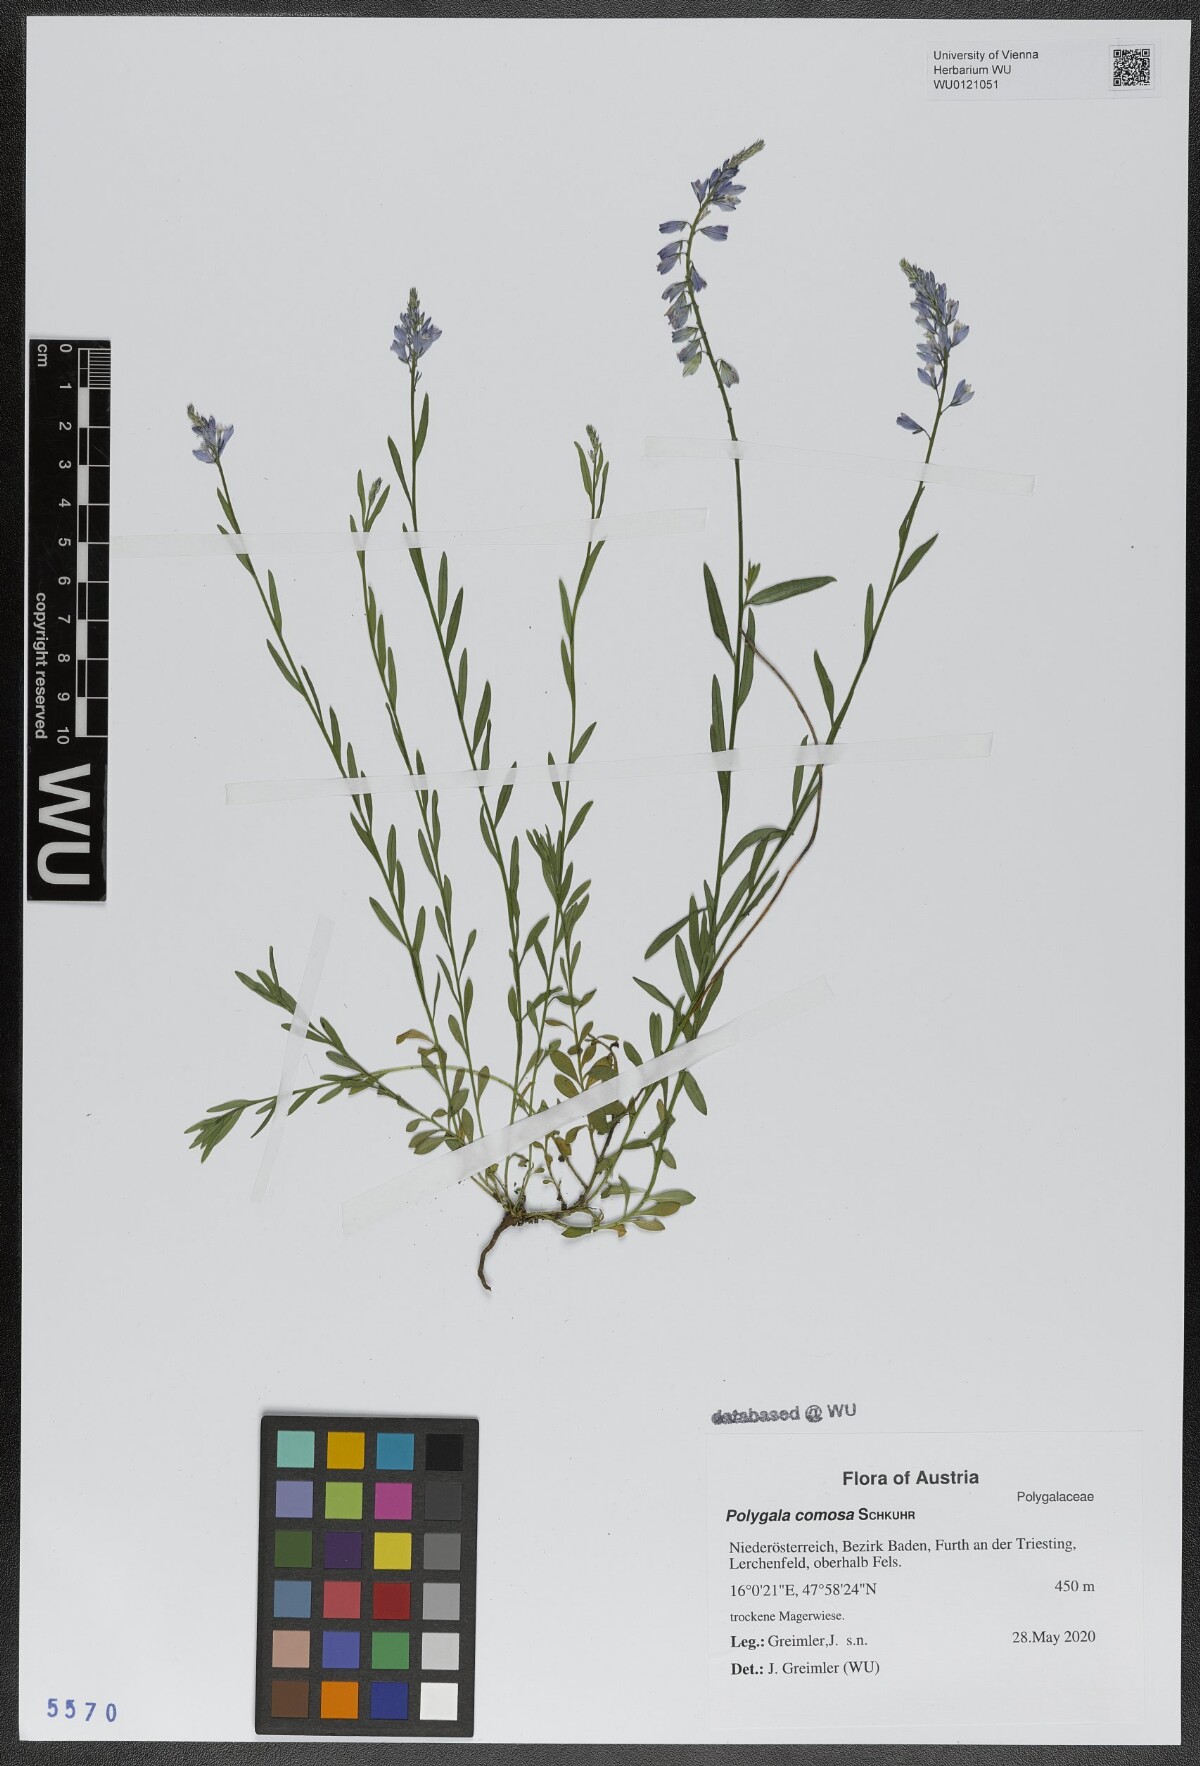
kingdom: Plantae
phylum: Tracheophyta
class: Magnoliopsida
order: Fabales
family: Polygalaceae
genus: Polygala
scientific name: Polygala comosa
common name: Tufted milkwort
